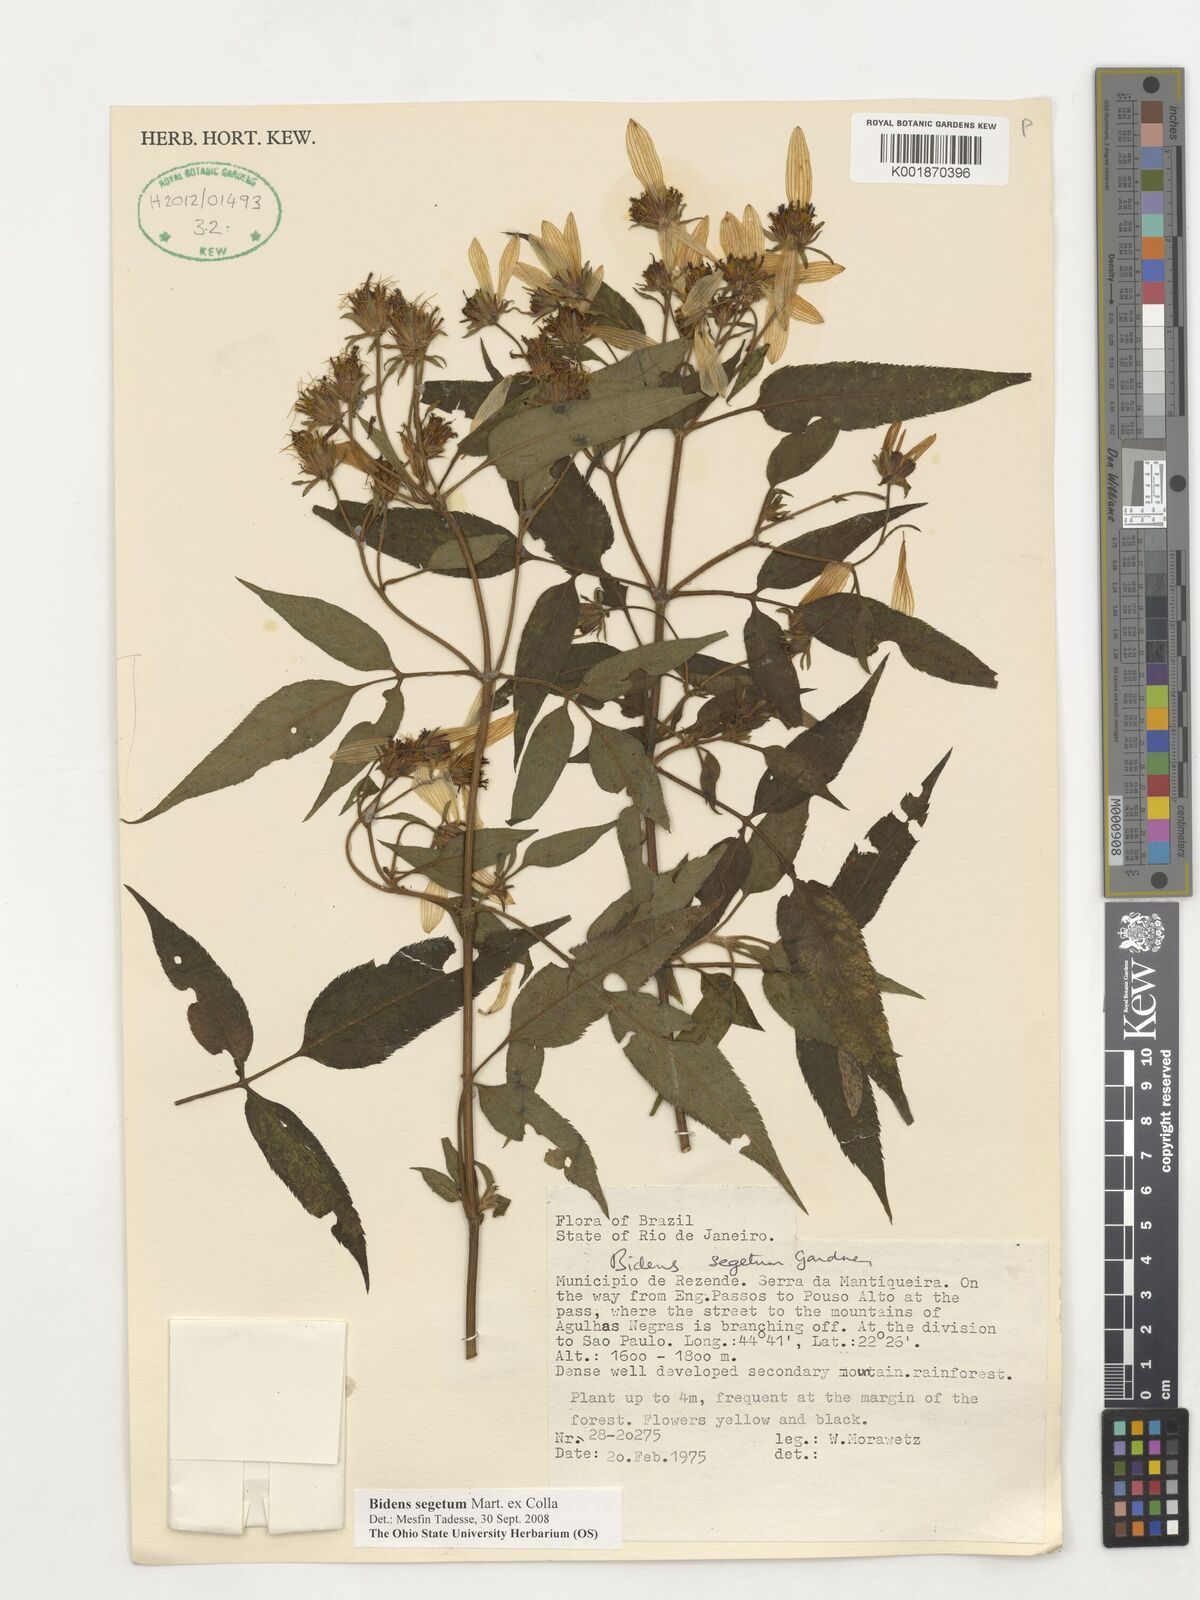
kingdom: Plantae
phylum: Tracheophyta
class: Magnoliopsida
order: Asterales
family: Asteraceae
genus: Bidens
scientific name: Bidens segetum
